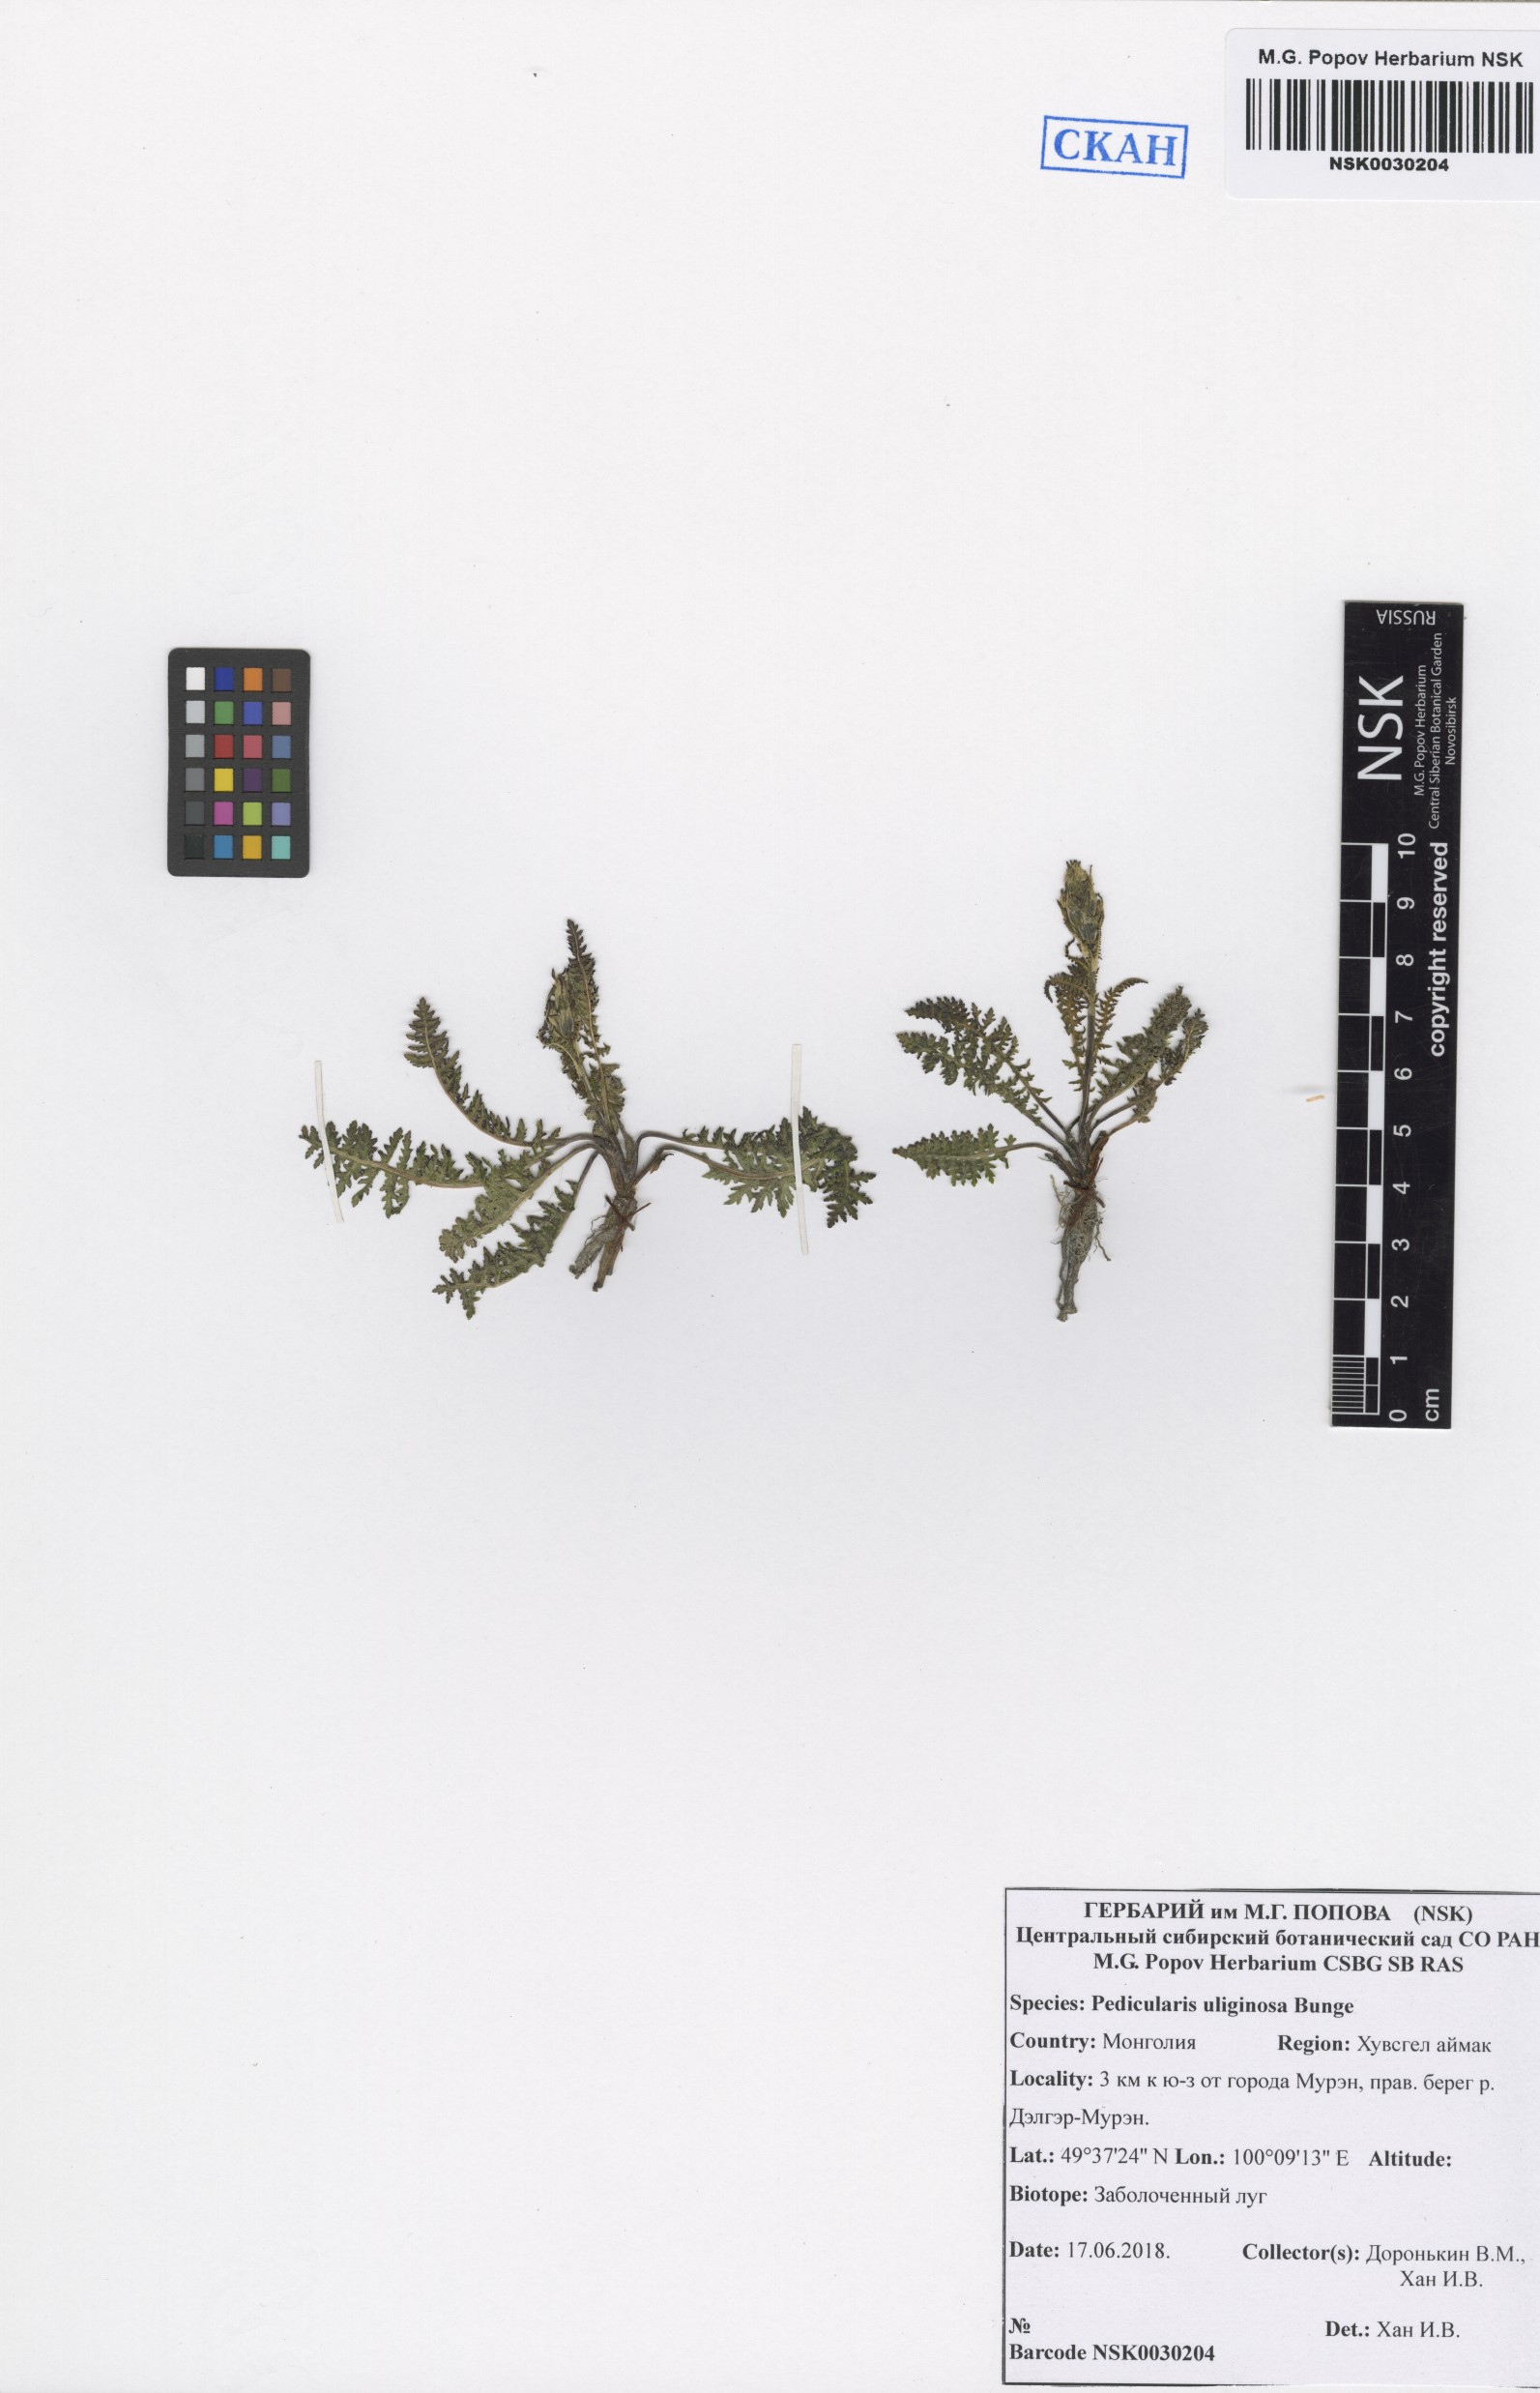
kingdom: Plantae
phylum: Tracheophyta
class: Magnoliopsida
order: Lamiales
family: Orobanchaceae
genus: Pedicularis
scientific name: Pedicularis uliginosa
